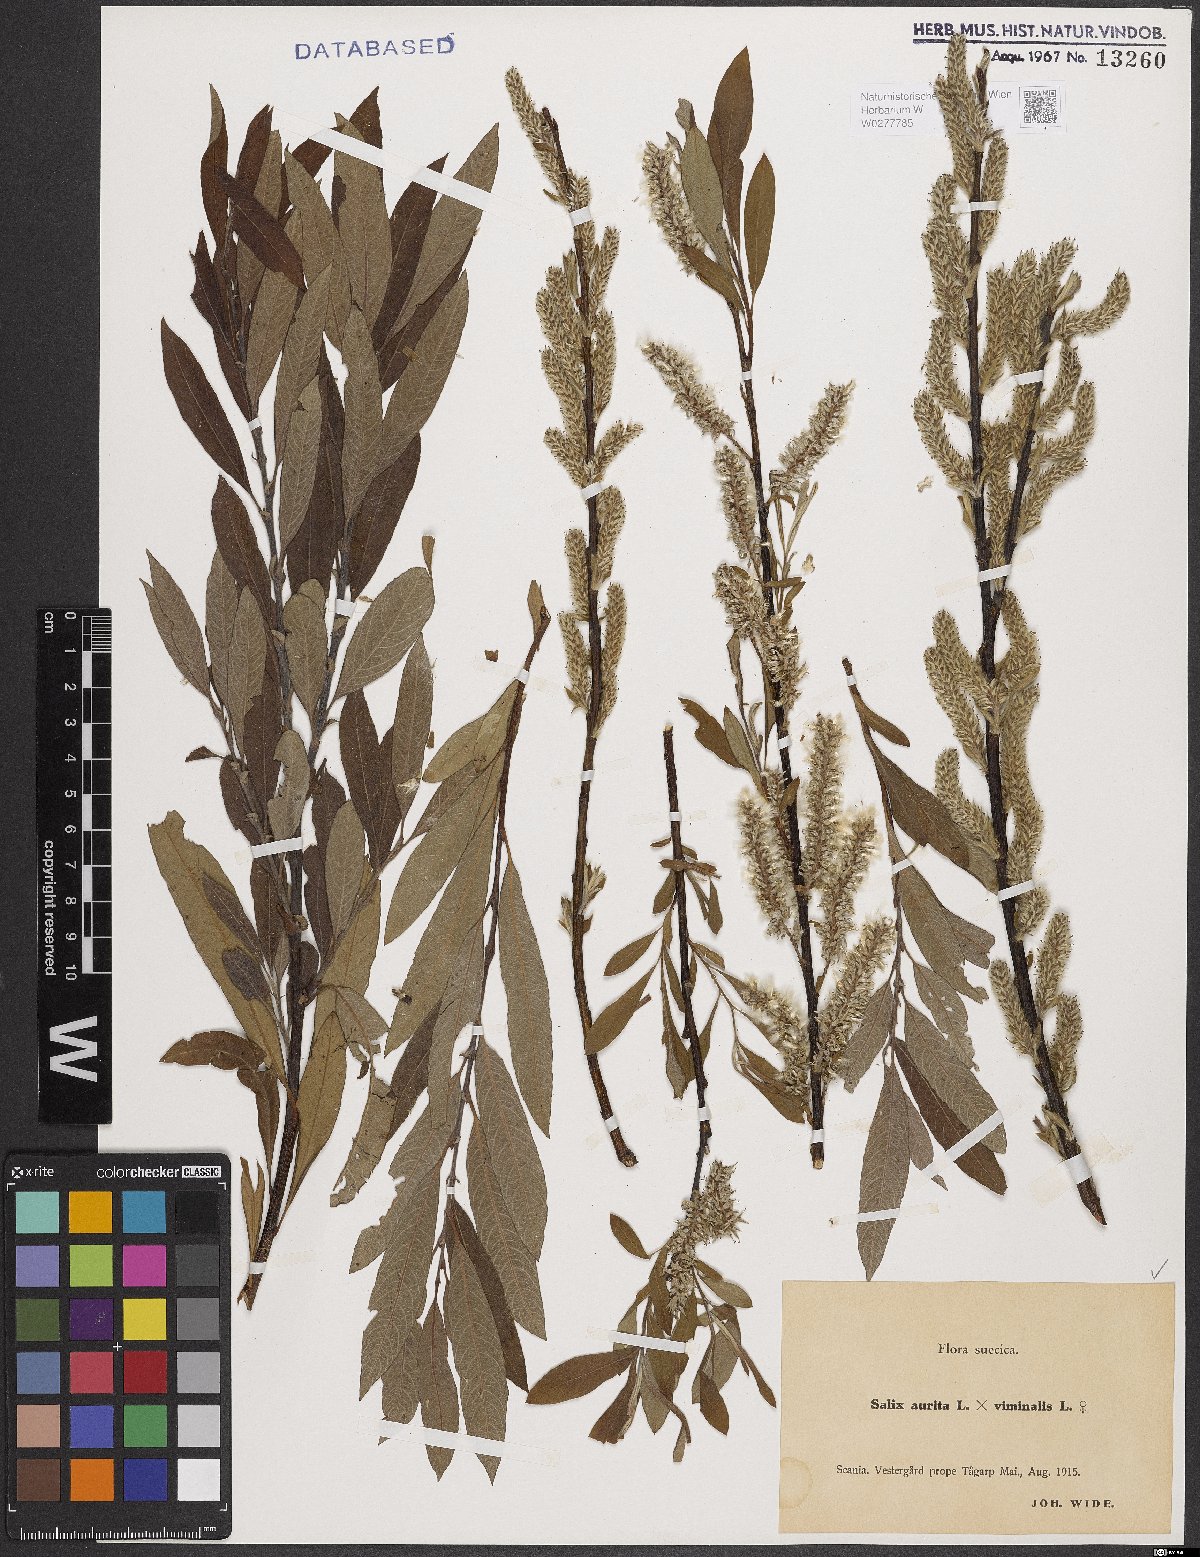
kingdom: Plantae
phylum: Tracheophyta
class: Magnoliopsida
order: Malpighiales
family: Salicaceae
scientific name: Salicaceae
